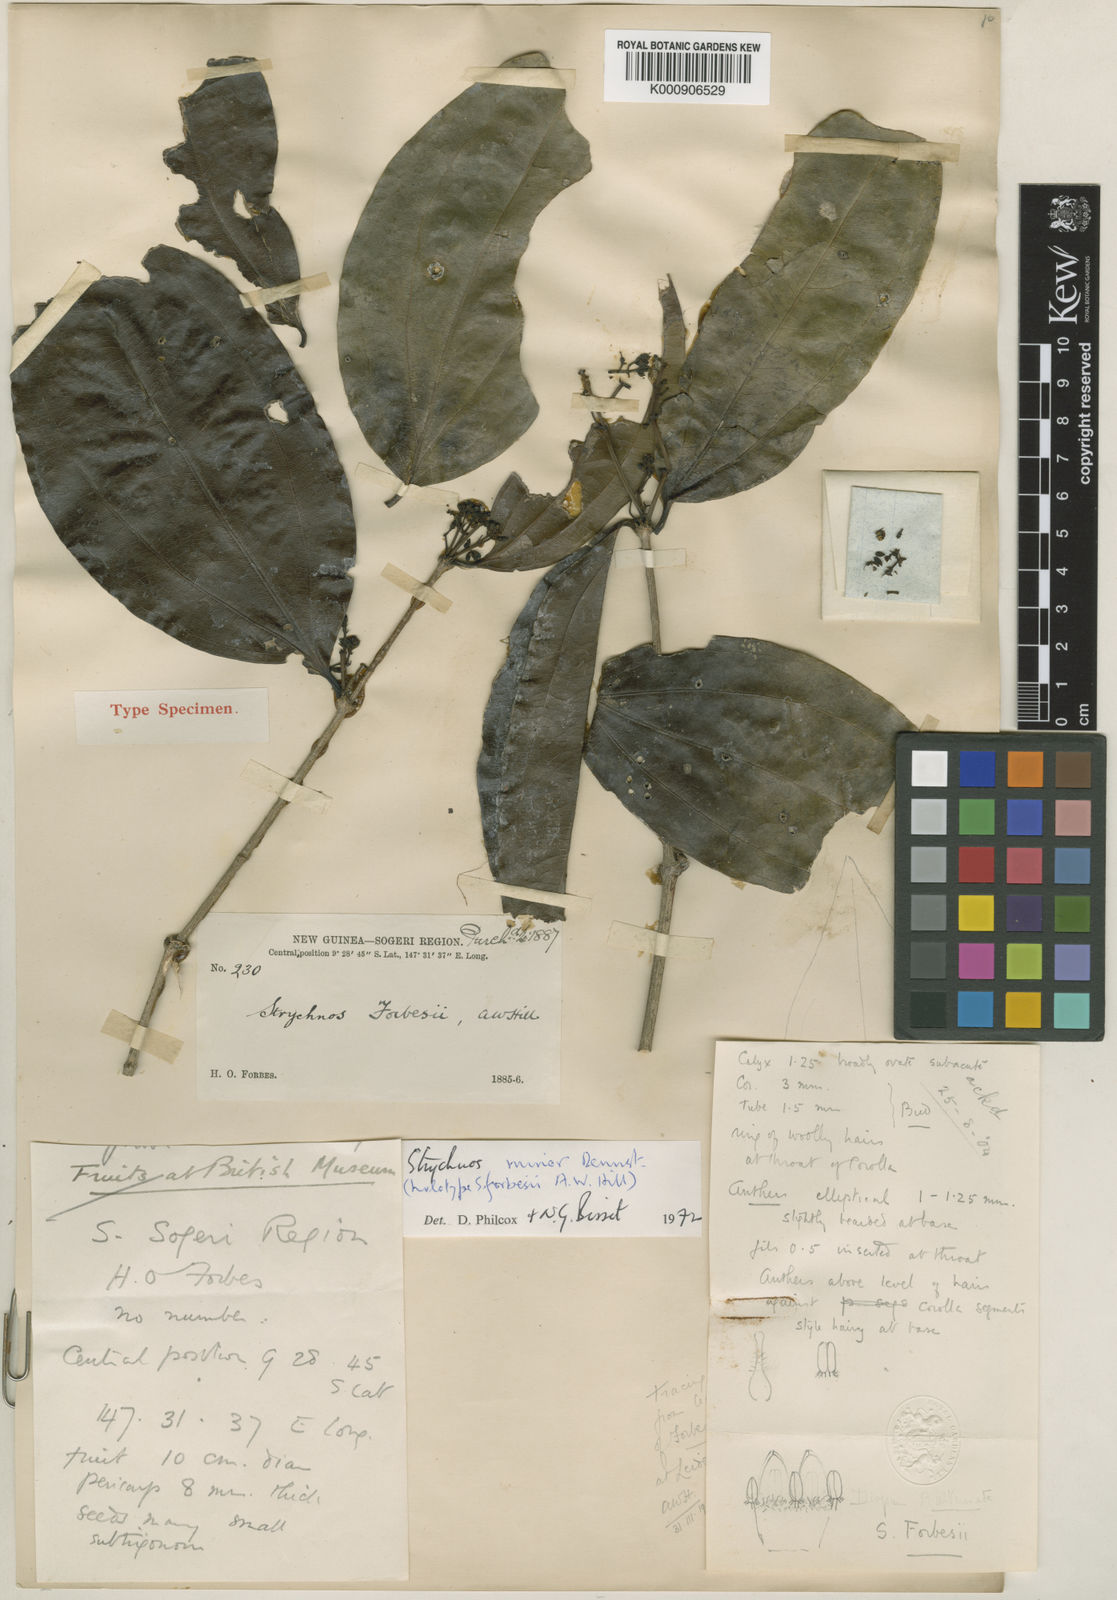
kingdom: Plantae
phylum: Tracheophyta
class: Magnoliopsida
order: Gentianales
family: Loganiaceae
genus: Strychnos
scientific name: Strychnos minor
